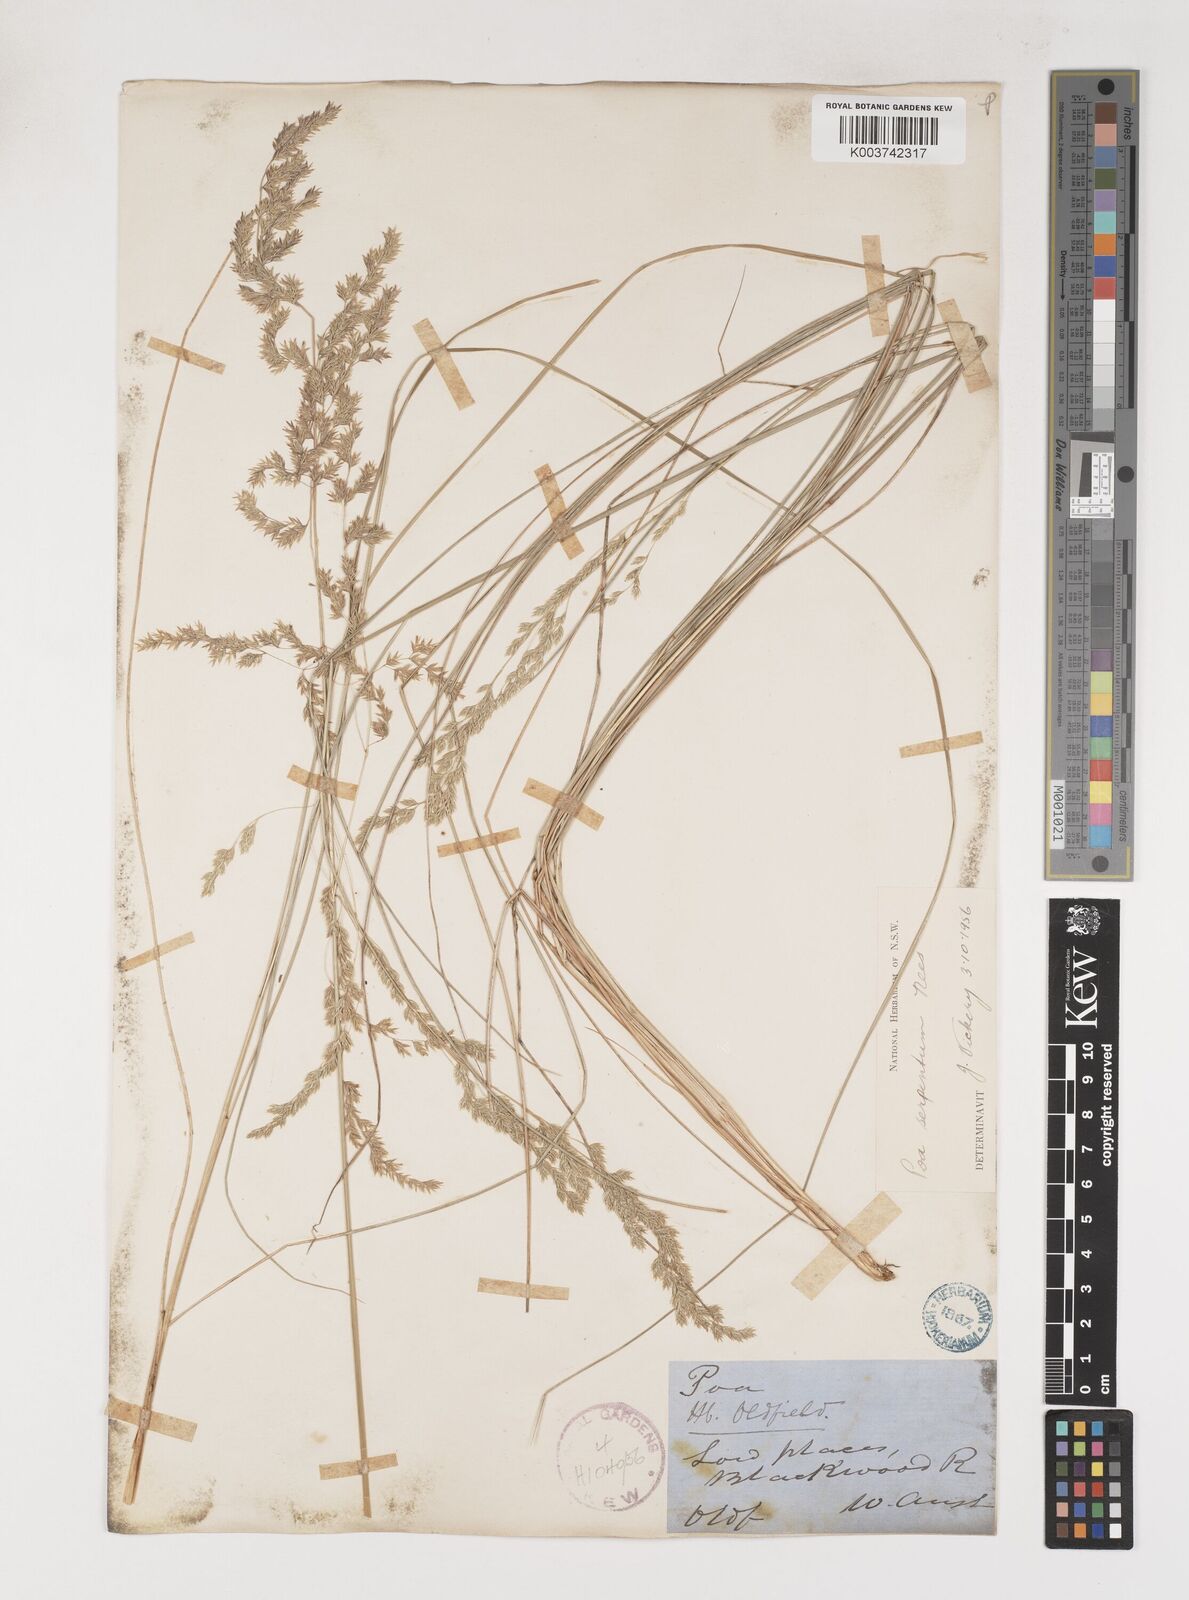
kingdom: Plantae
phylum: Tracheophyta
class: Liliopsida
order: Poales
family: Poaceae
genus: Poa
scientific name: Poa porphyroclados
